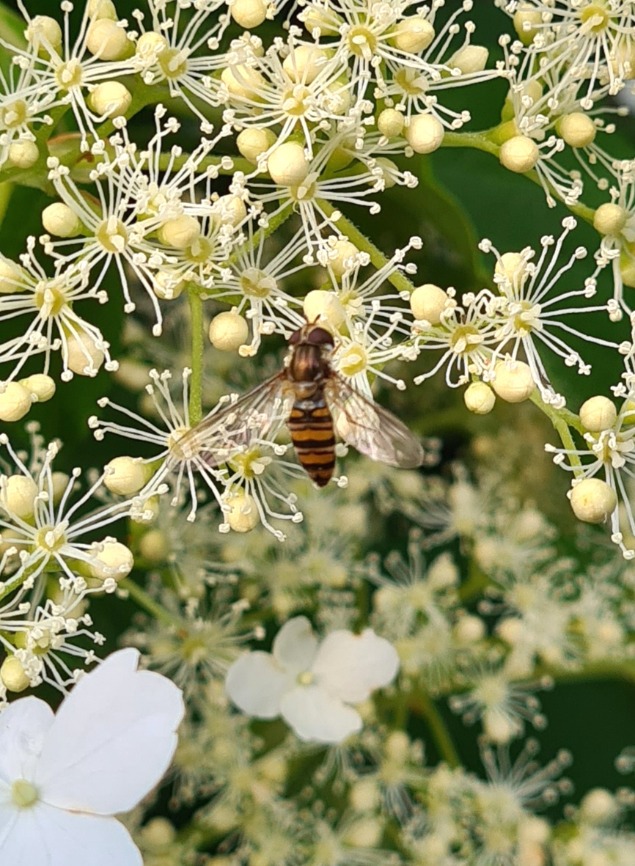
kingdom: Animalia
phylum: Arthropoda
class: Insecta
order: Diptera
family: Syrphidae
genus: Episyrphus
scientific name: Episyrphus balteatus
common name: Dobbeltbåndet svirreflue
